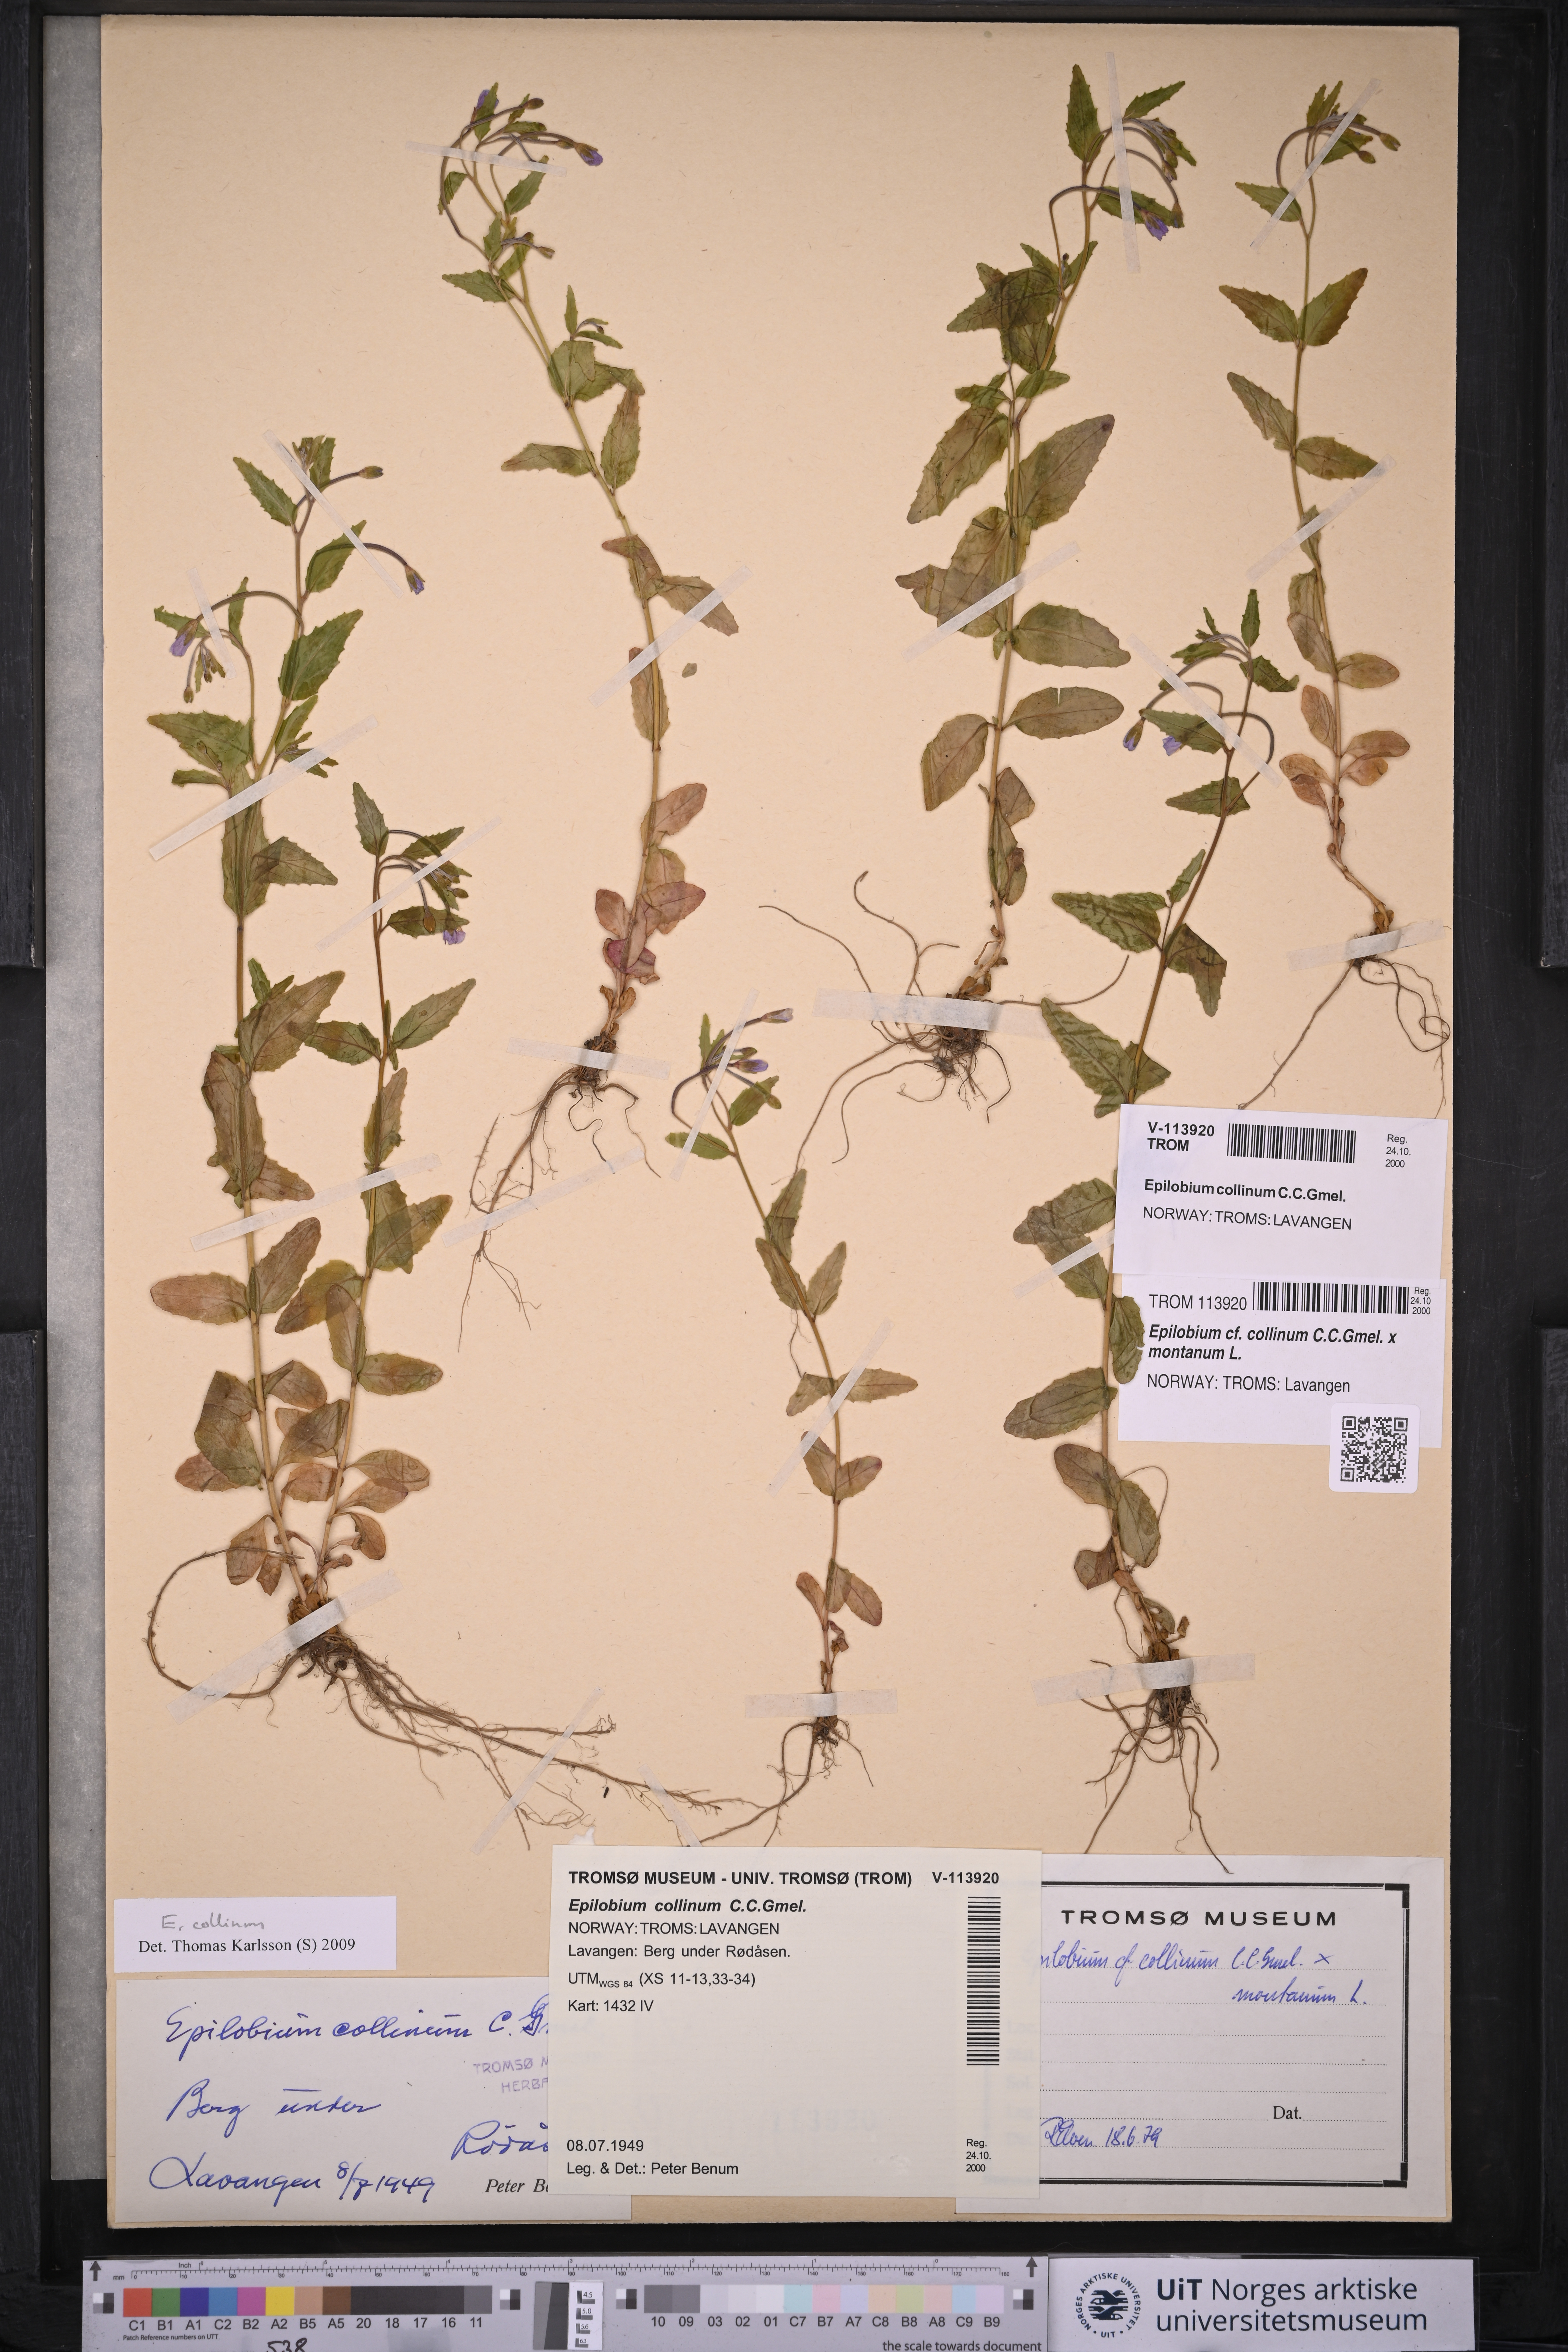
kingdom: Plantae
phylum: Tracheophyta
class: Magnoliopsida
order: Myrtales
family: Onagraceae
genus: Epilobium
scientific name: Epilobium collinum
